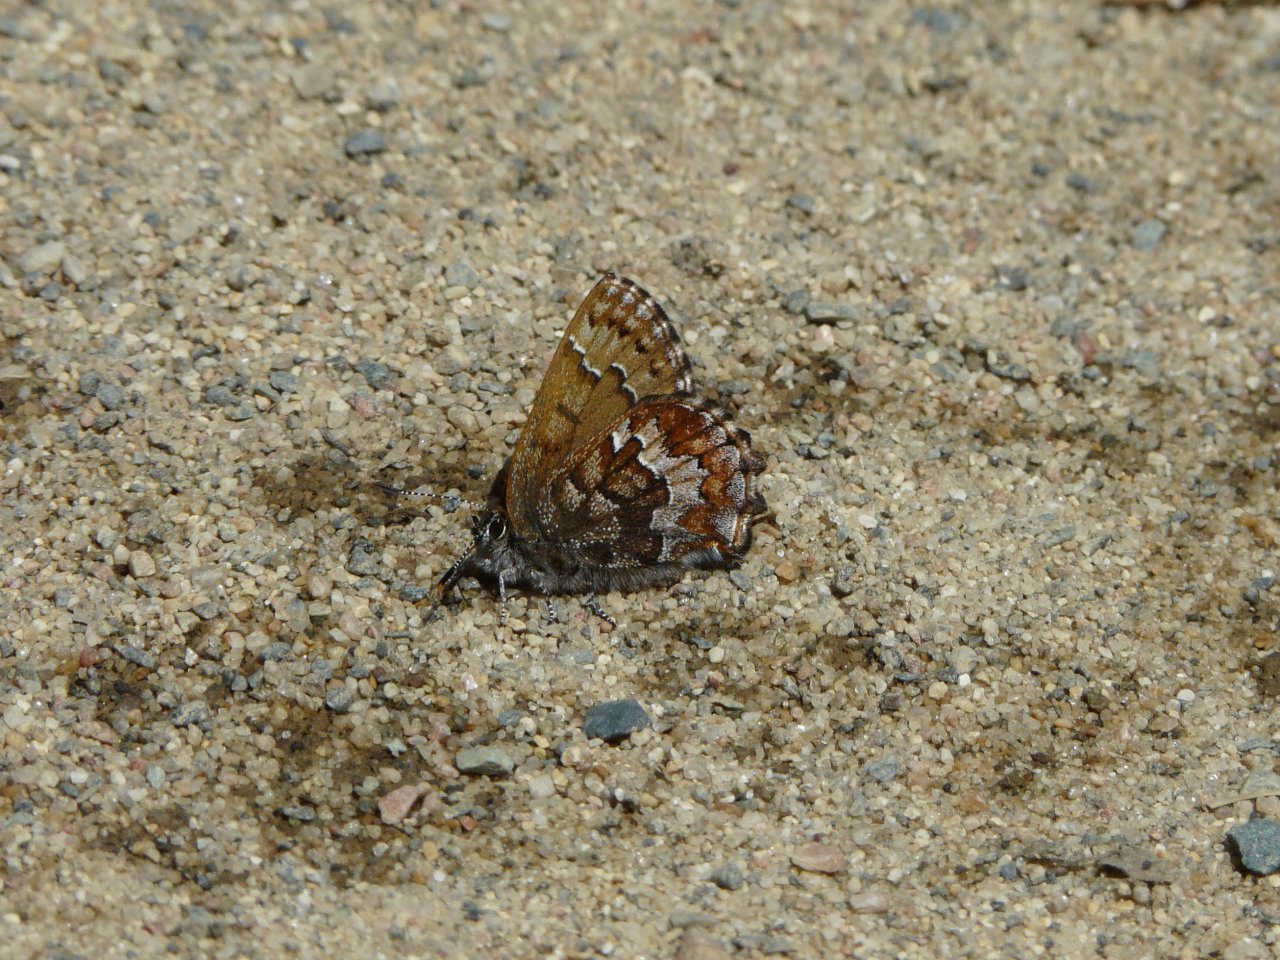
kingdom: Animalia
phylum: Arthropoda
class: Insecta
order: Lepidoptera
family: Lycaenidae
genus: Incisalia
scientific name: Incisalia niphon
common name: Eastern Pine Elfin
